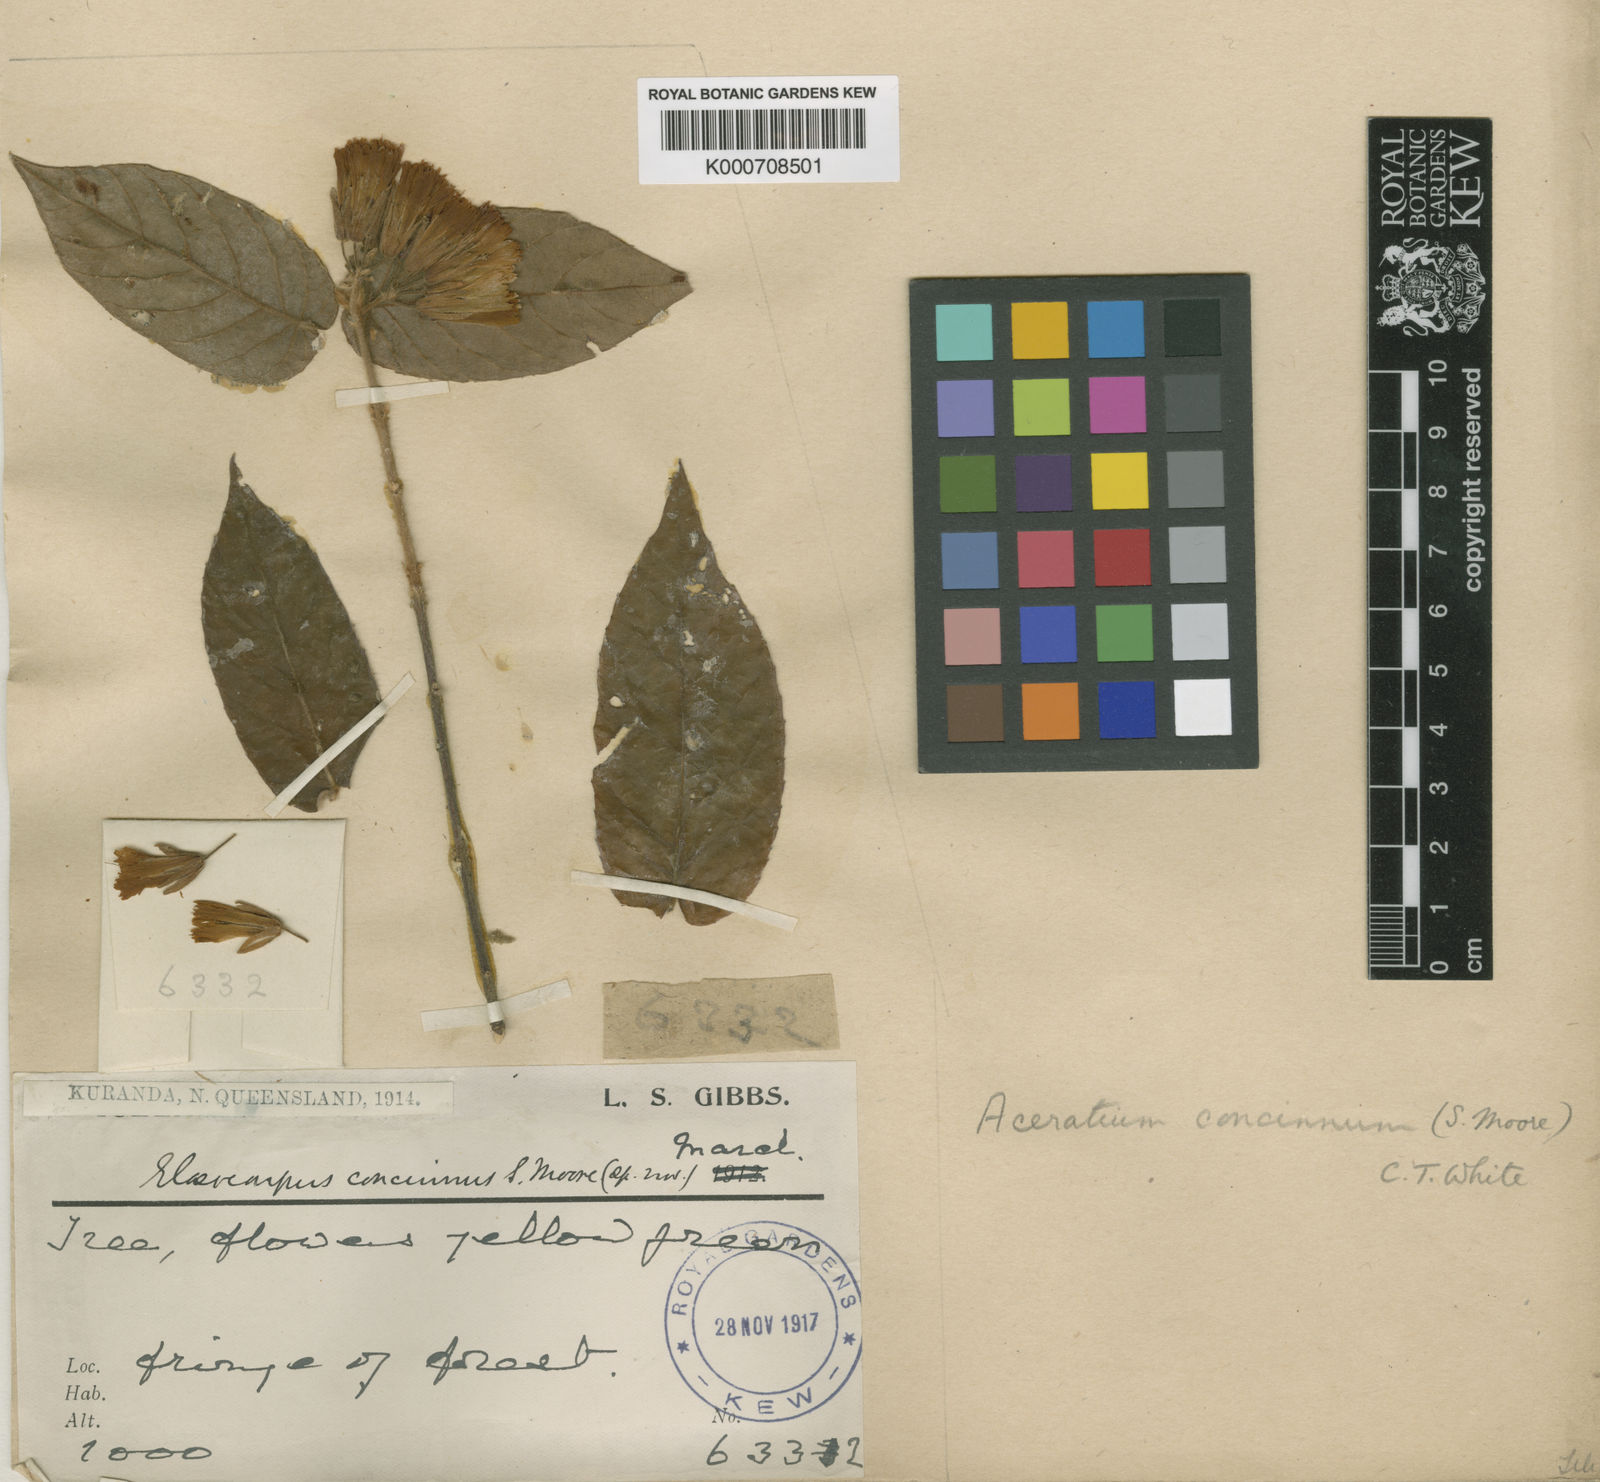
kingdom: Plantae
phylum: Tracheophyta
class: Magnoliopsida
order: Oxalidales
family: Elaeocarpaceae
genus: Aceratium
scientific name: Aceratium concinnum
